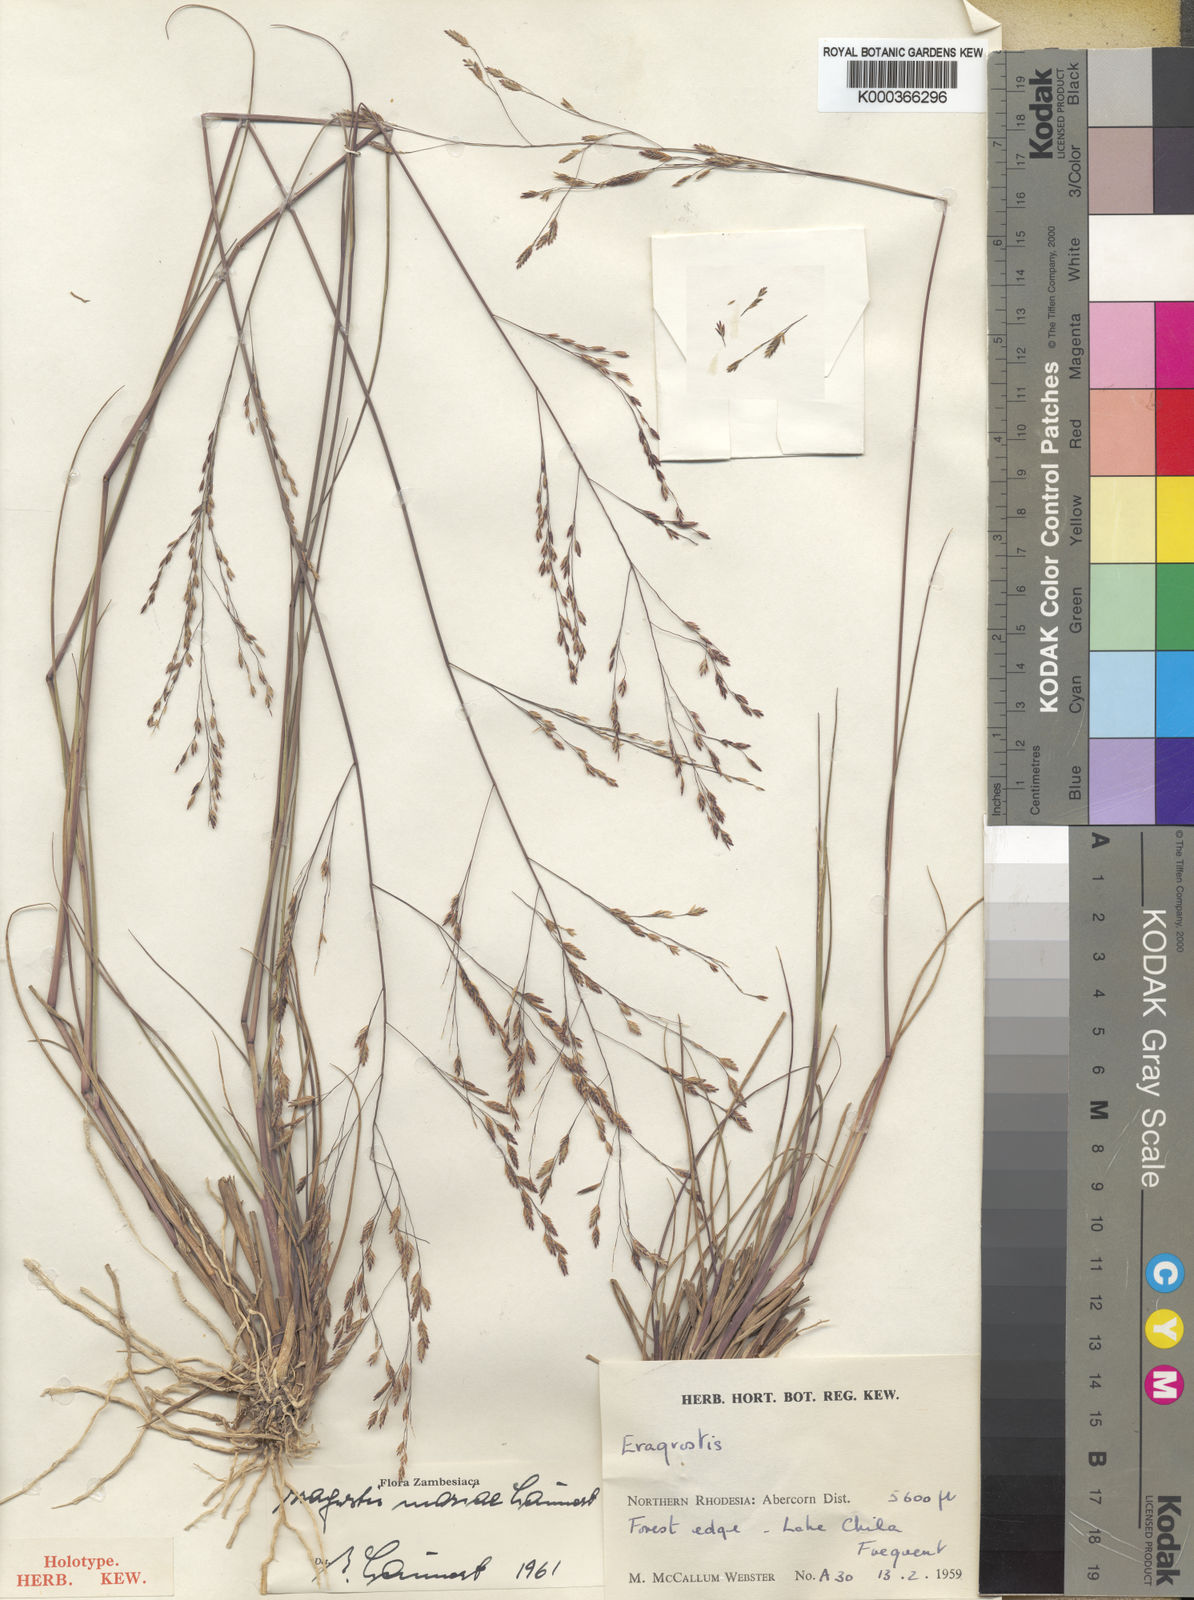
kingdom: Plantae
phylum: Tracheophyta
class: Liliopsida
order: Poales
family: Poaceae
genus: Eragrostis
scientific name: Eragrostis mariae
